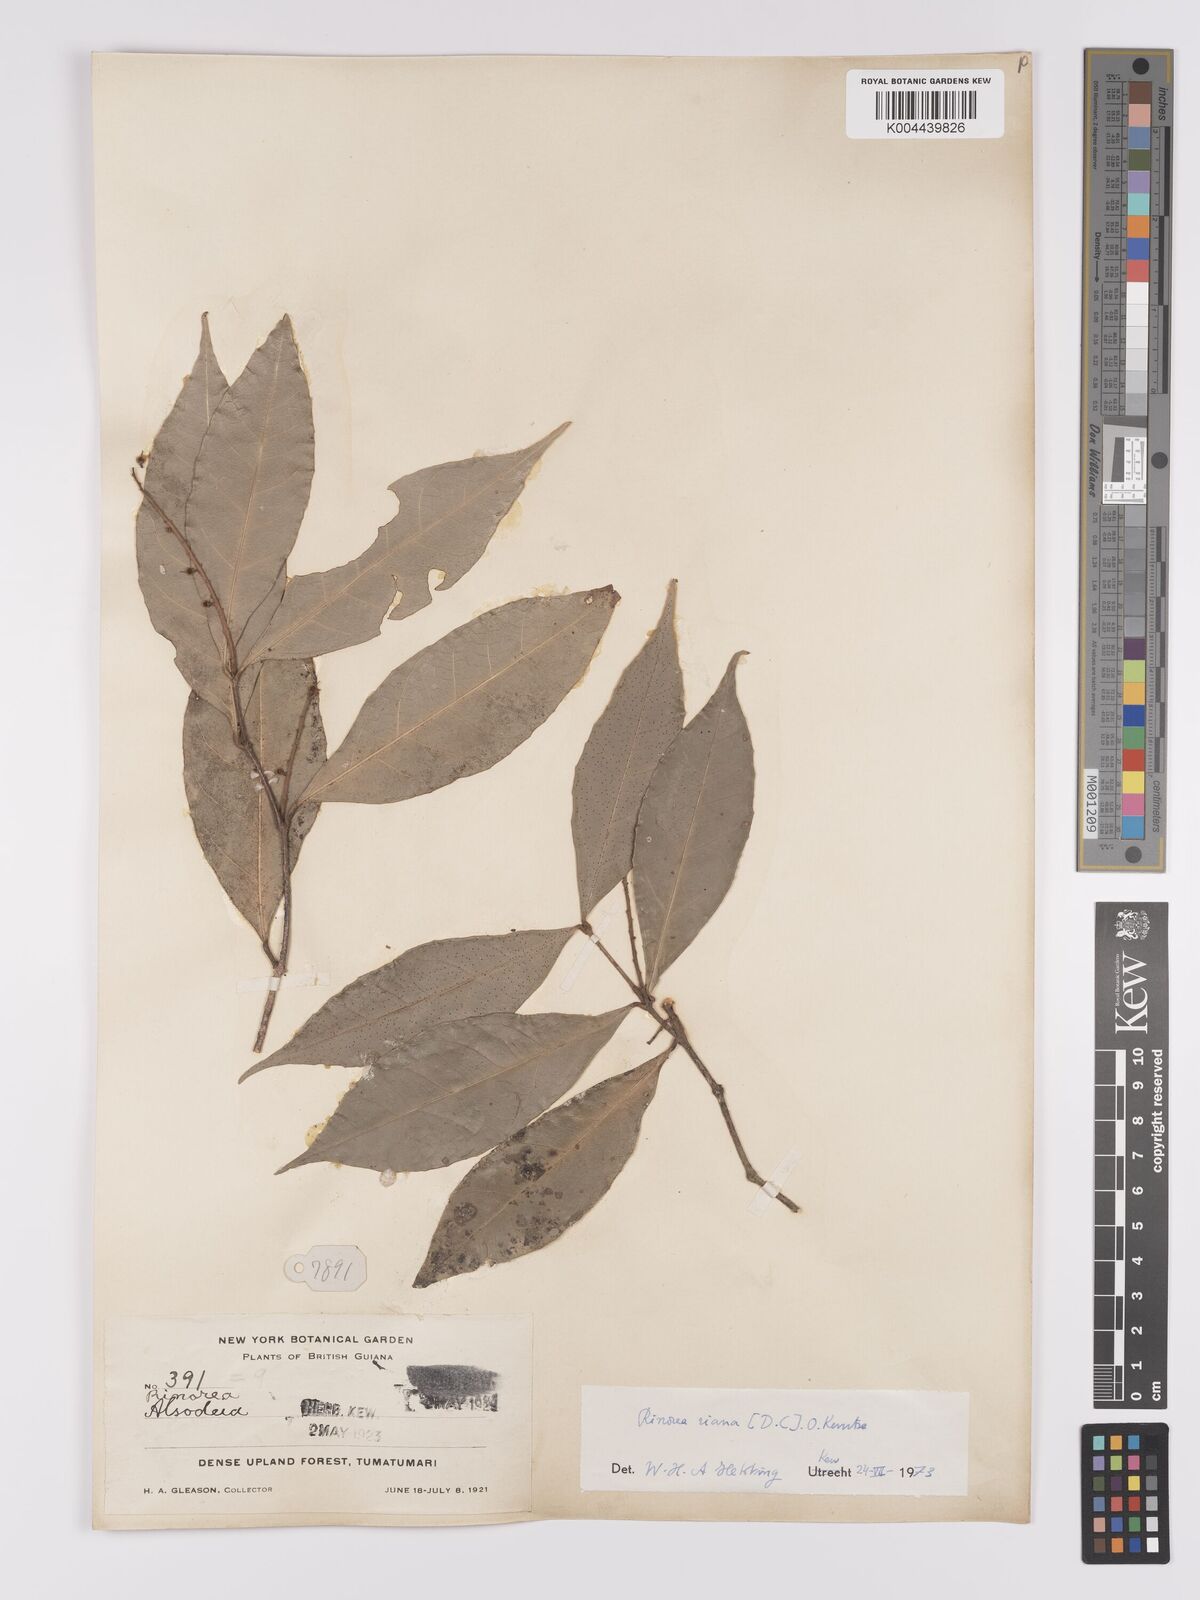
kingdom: Plantae
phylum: Tracheophyta
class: Magnoliopsida
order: Malpighiales
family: Violaceae
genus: Rinorea
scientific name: Rinorea riana
